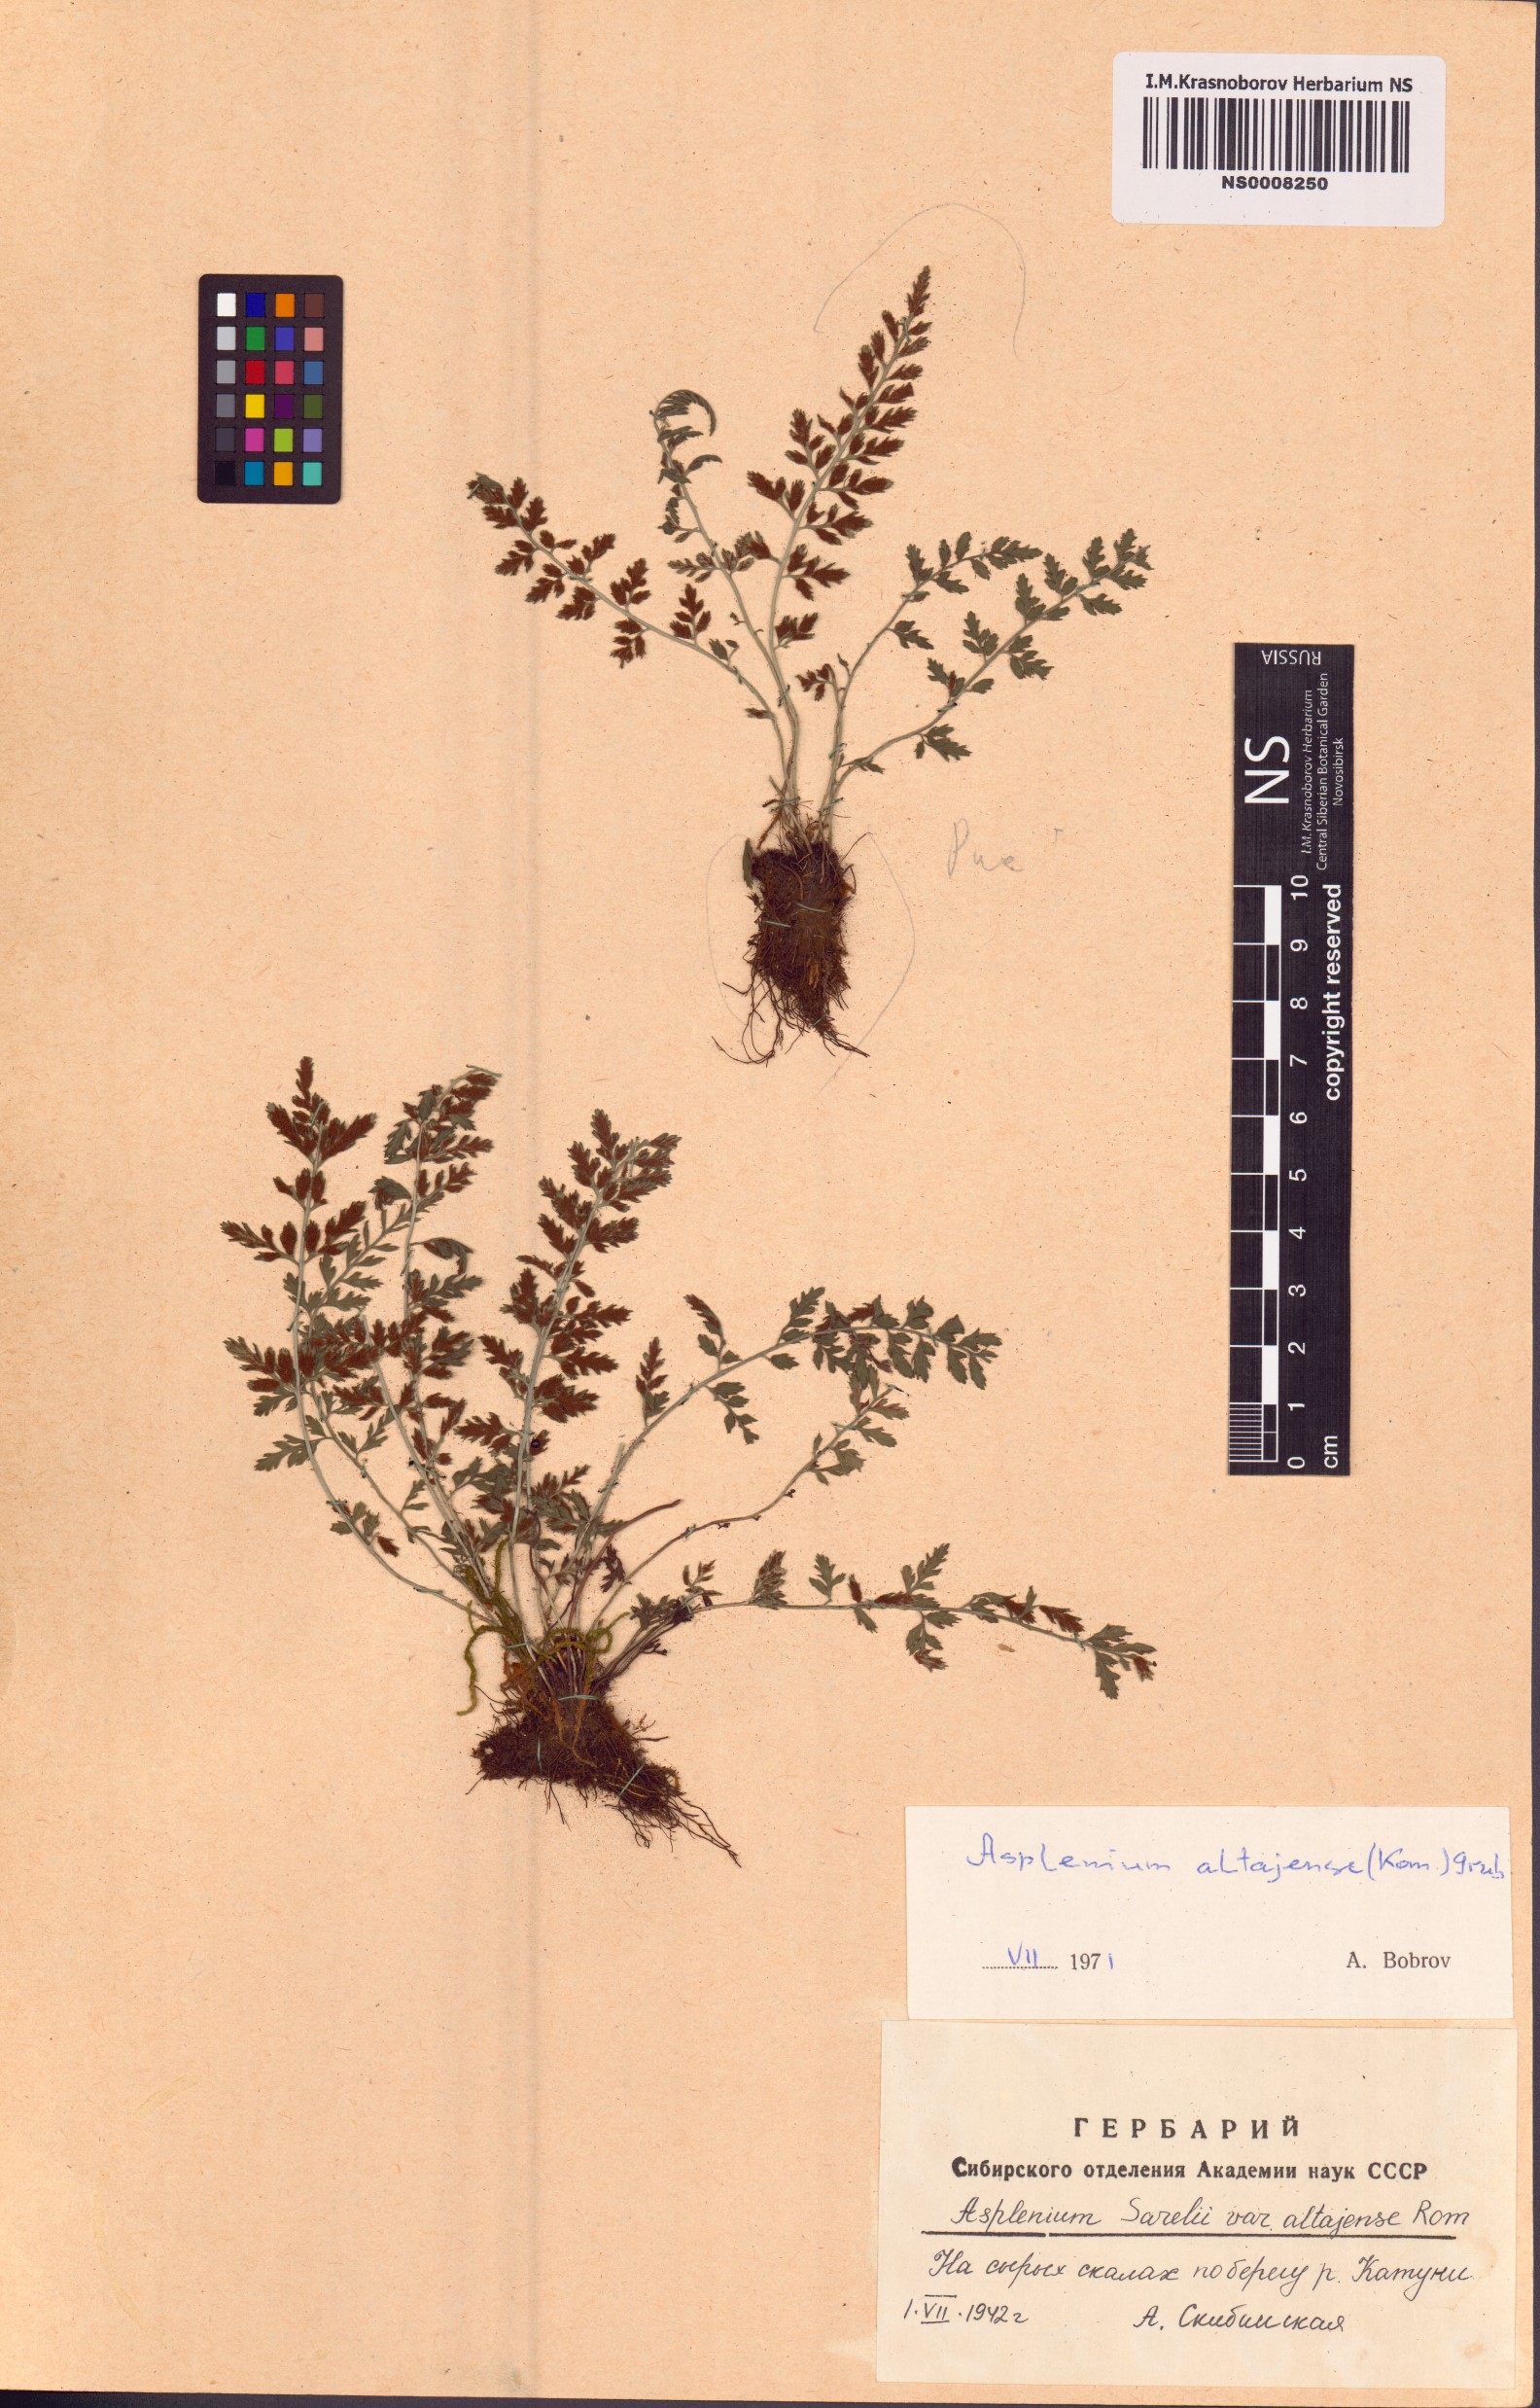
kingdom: Plantae
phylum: Tracheophyta
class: Polypodiopsida
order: Polypodiales
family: Aspleniaceae
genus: Asplenium
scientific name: Asplenium altajense
